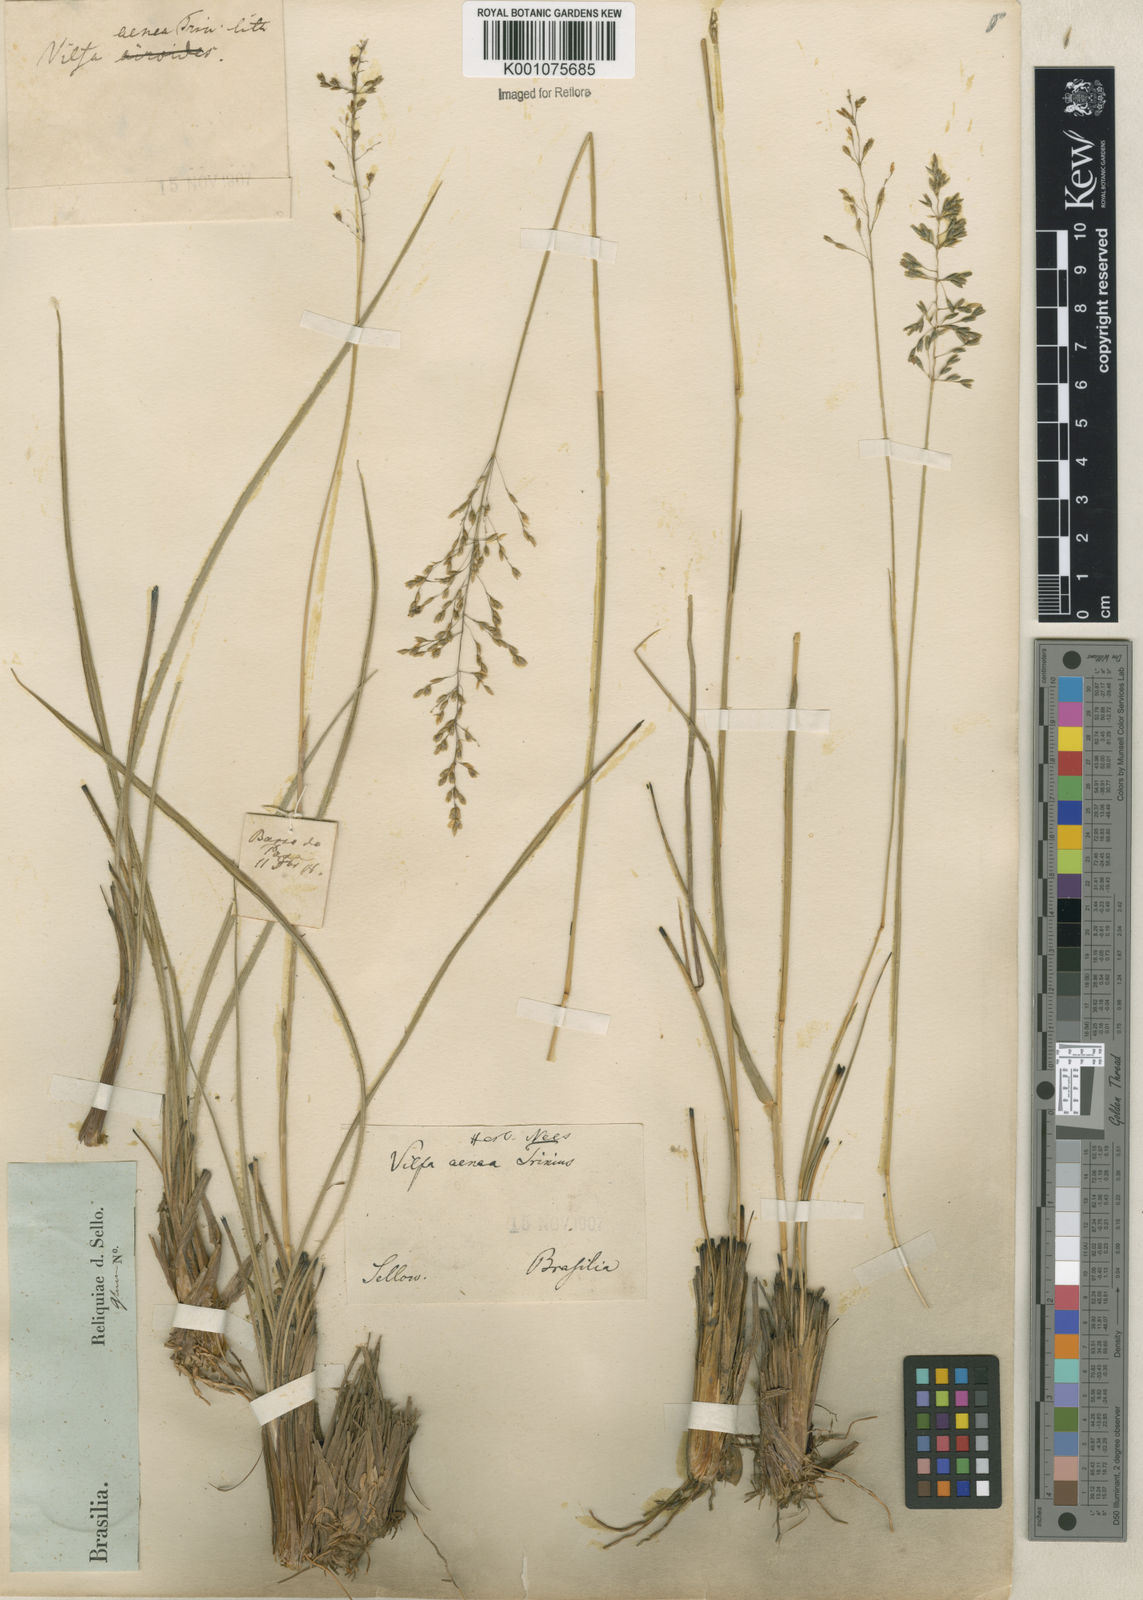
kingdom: Plantae
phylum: Tracheophyta
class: Liliopsida
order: Poales
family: Poaceae
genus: Sporobolus
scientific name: Sporobolus cubensis
